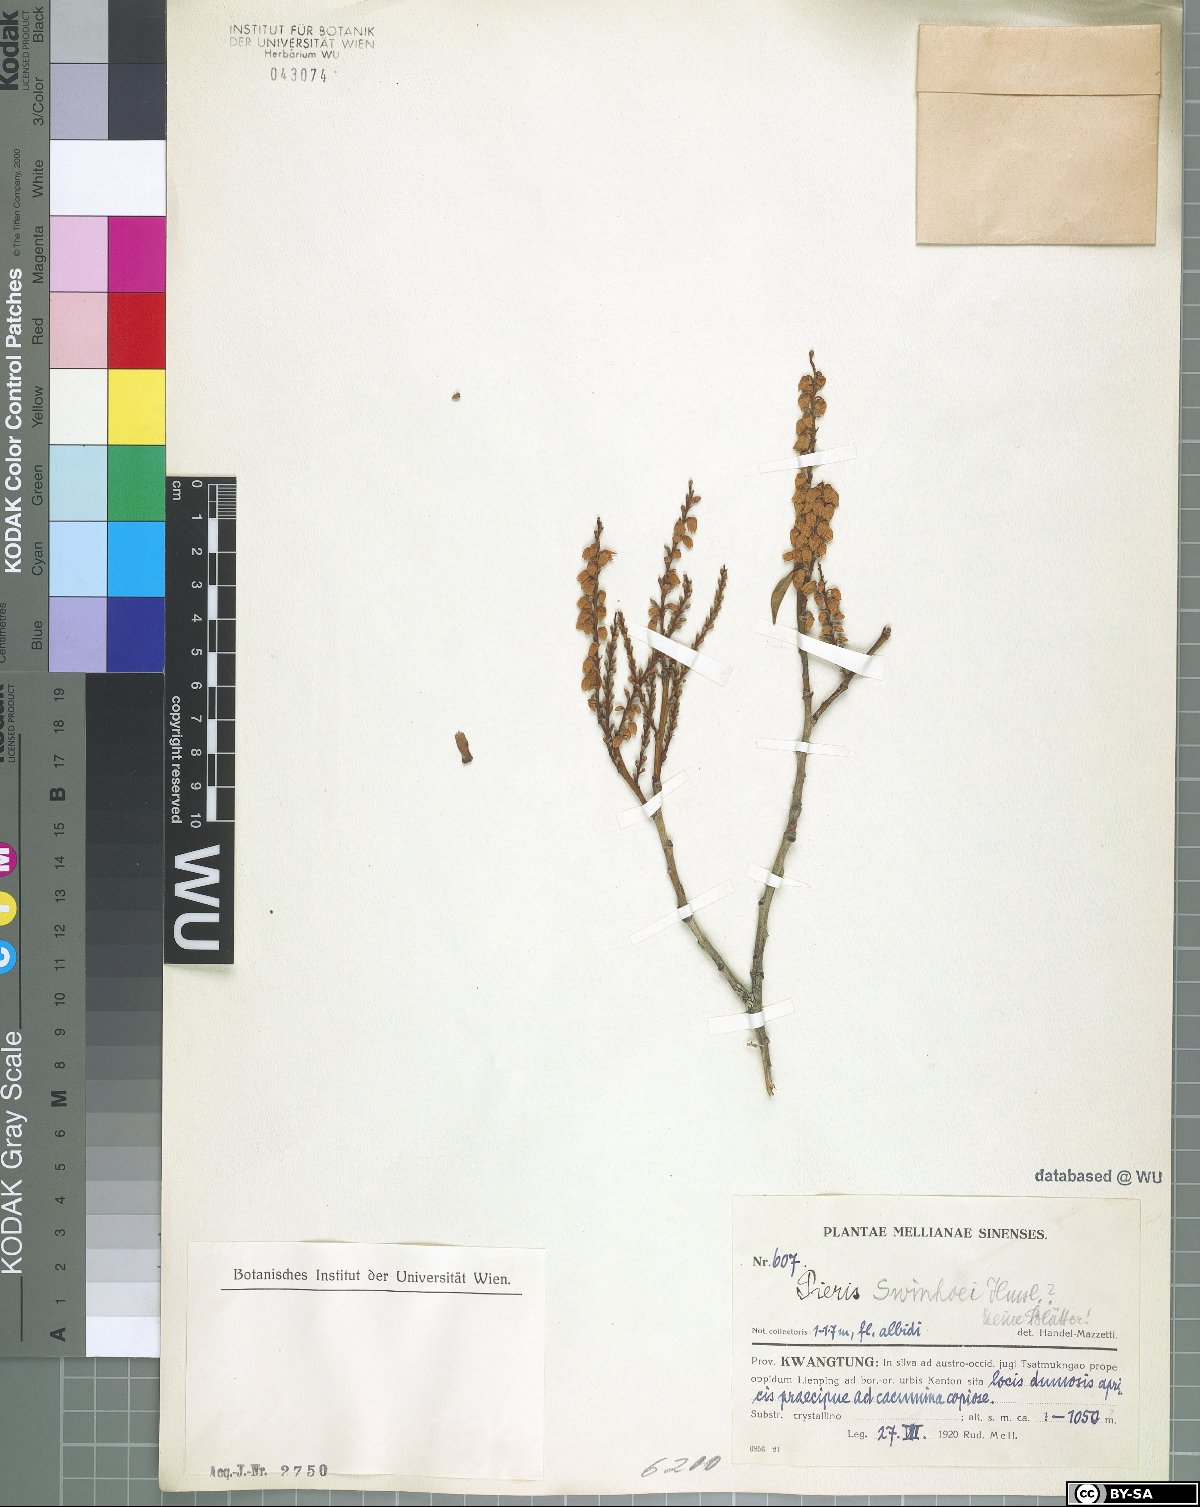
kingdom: Plantae
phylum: Tracheophyta
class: Magnoliopsida
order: Ericales
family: Ericaceae
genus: Pieris
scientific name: Pieris swinhoei
